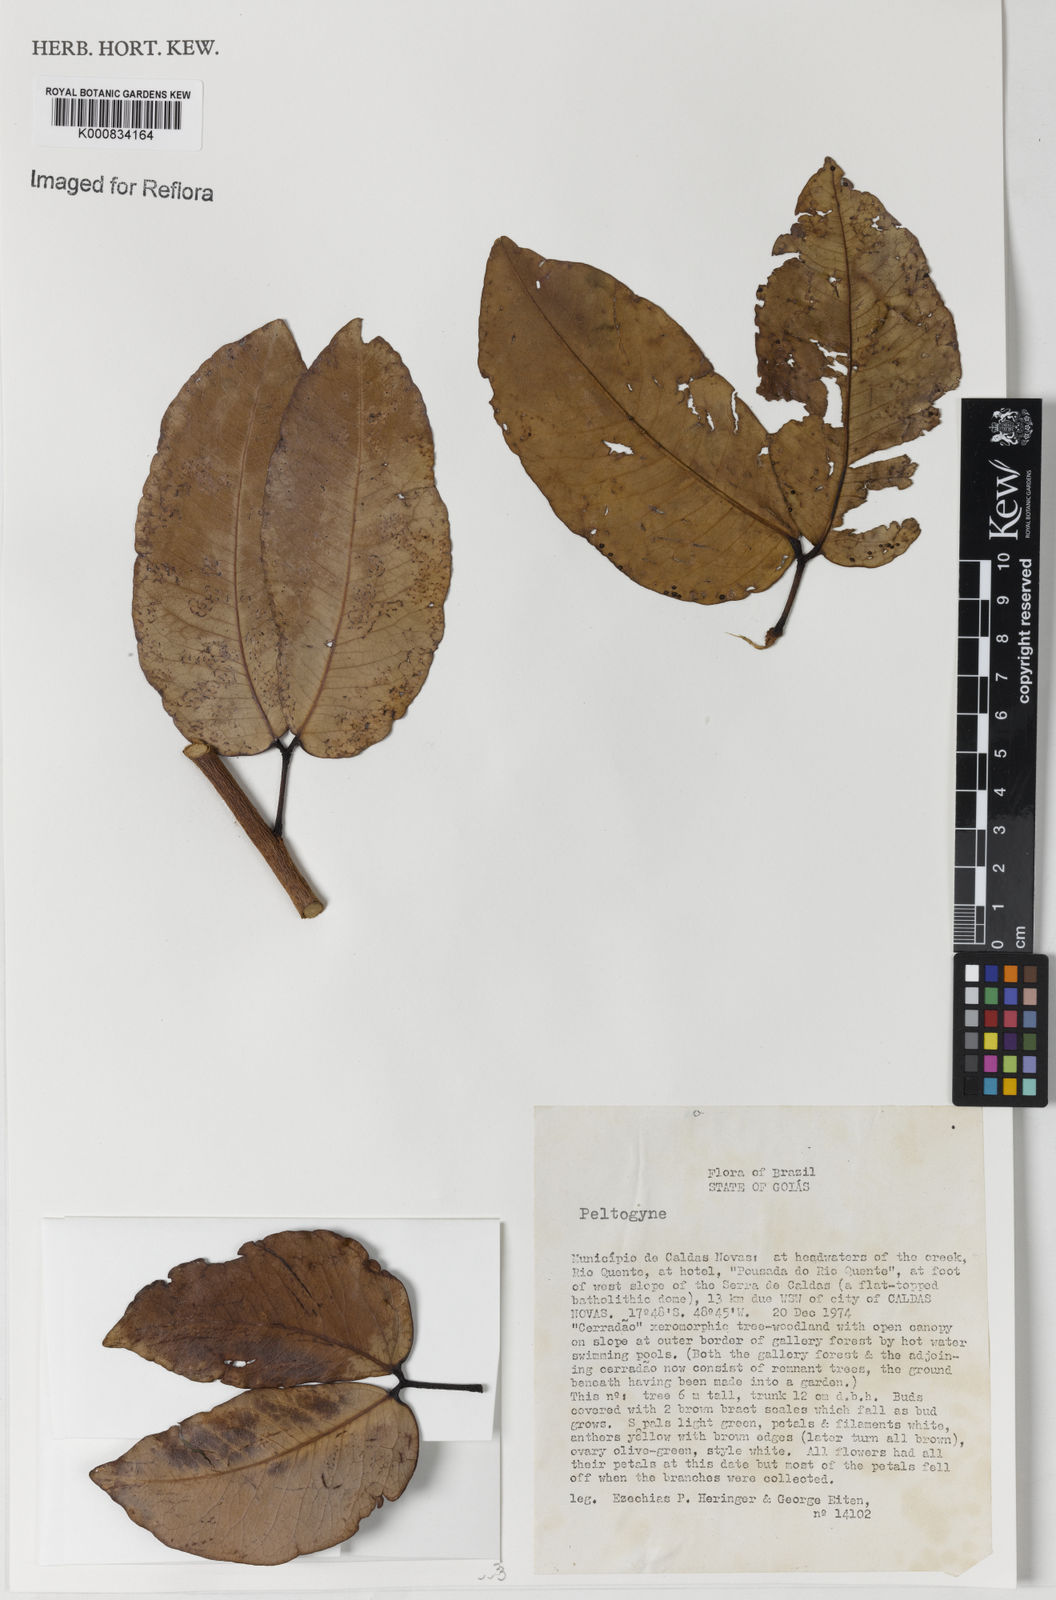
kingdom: Plantae
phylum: Tracheophyta
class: Magnoliopsida
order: Fabales
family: Fabaceae
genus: Peltogyne
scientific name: Peltogyne
